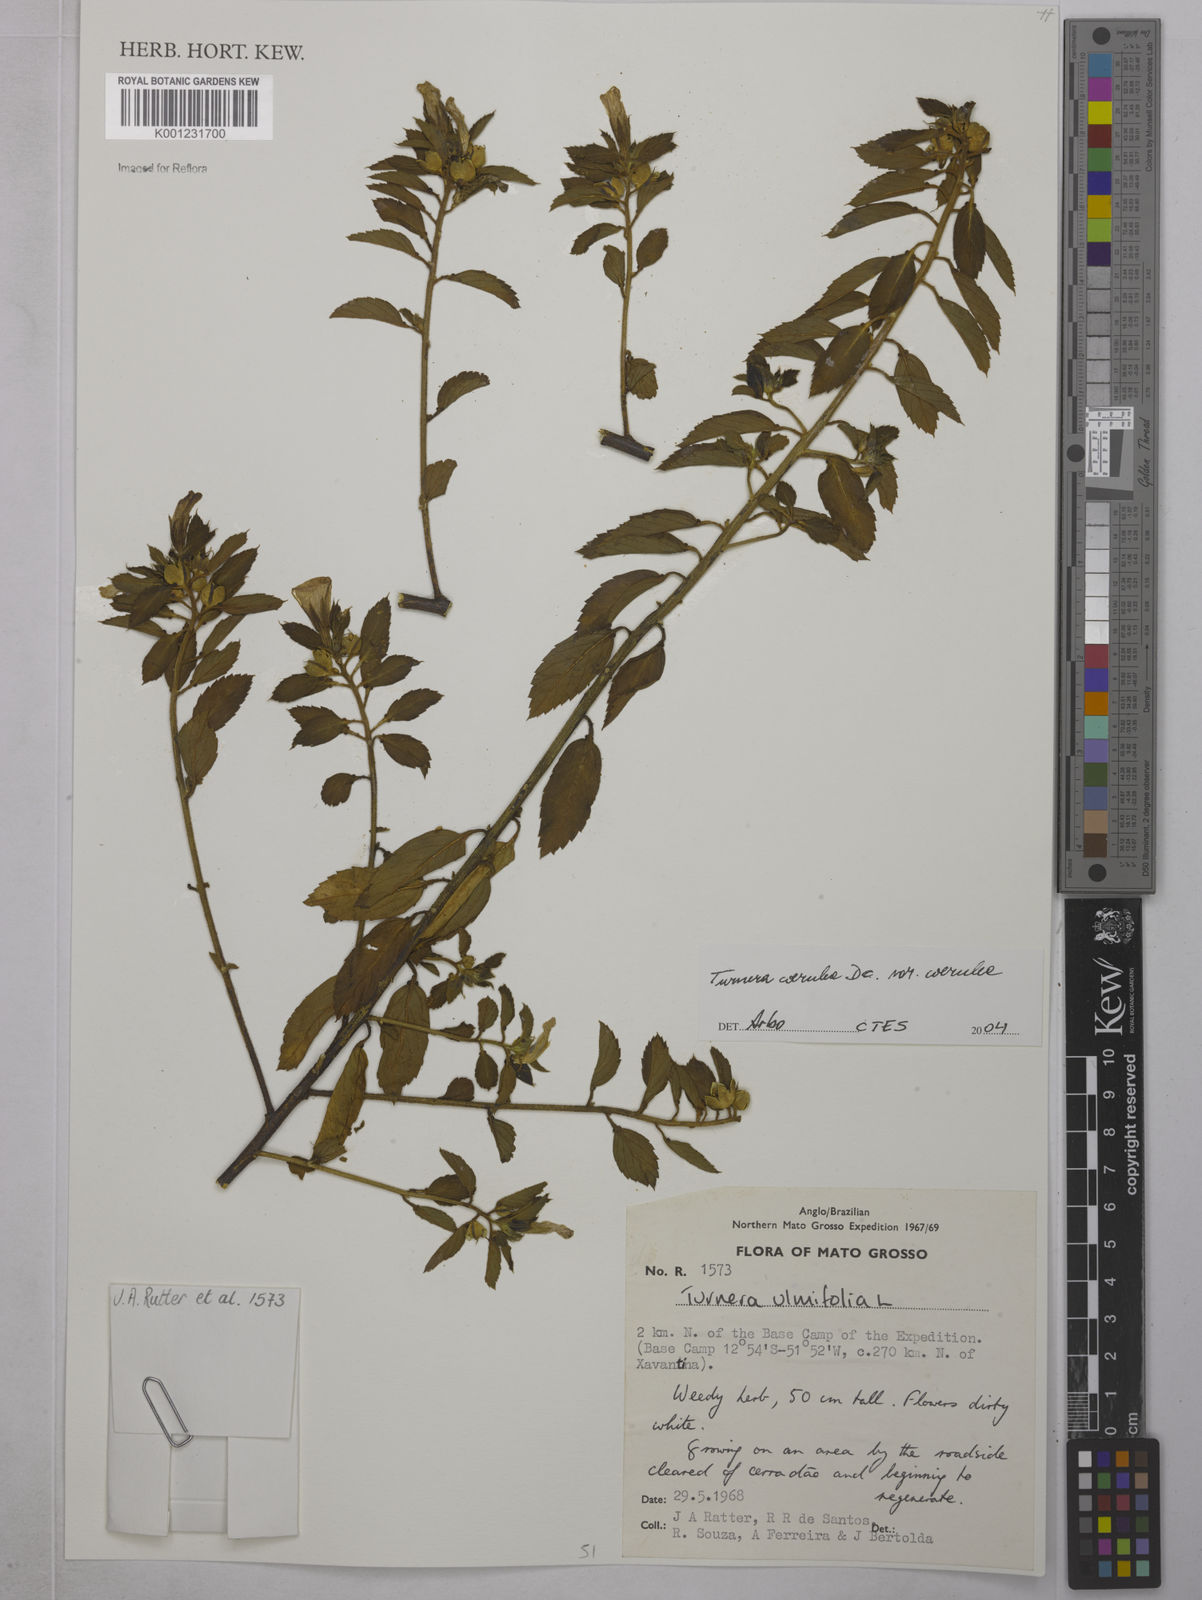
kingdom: Plantae
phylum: Tracheophyta
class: Magnoliopsida
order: Malpighiales
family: Turneraceae
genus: Turnera
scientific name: Turnera
